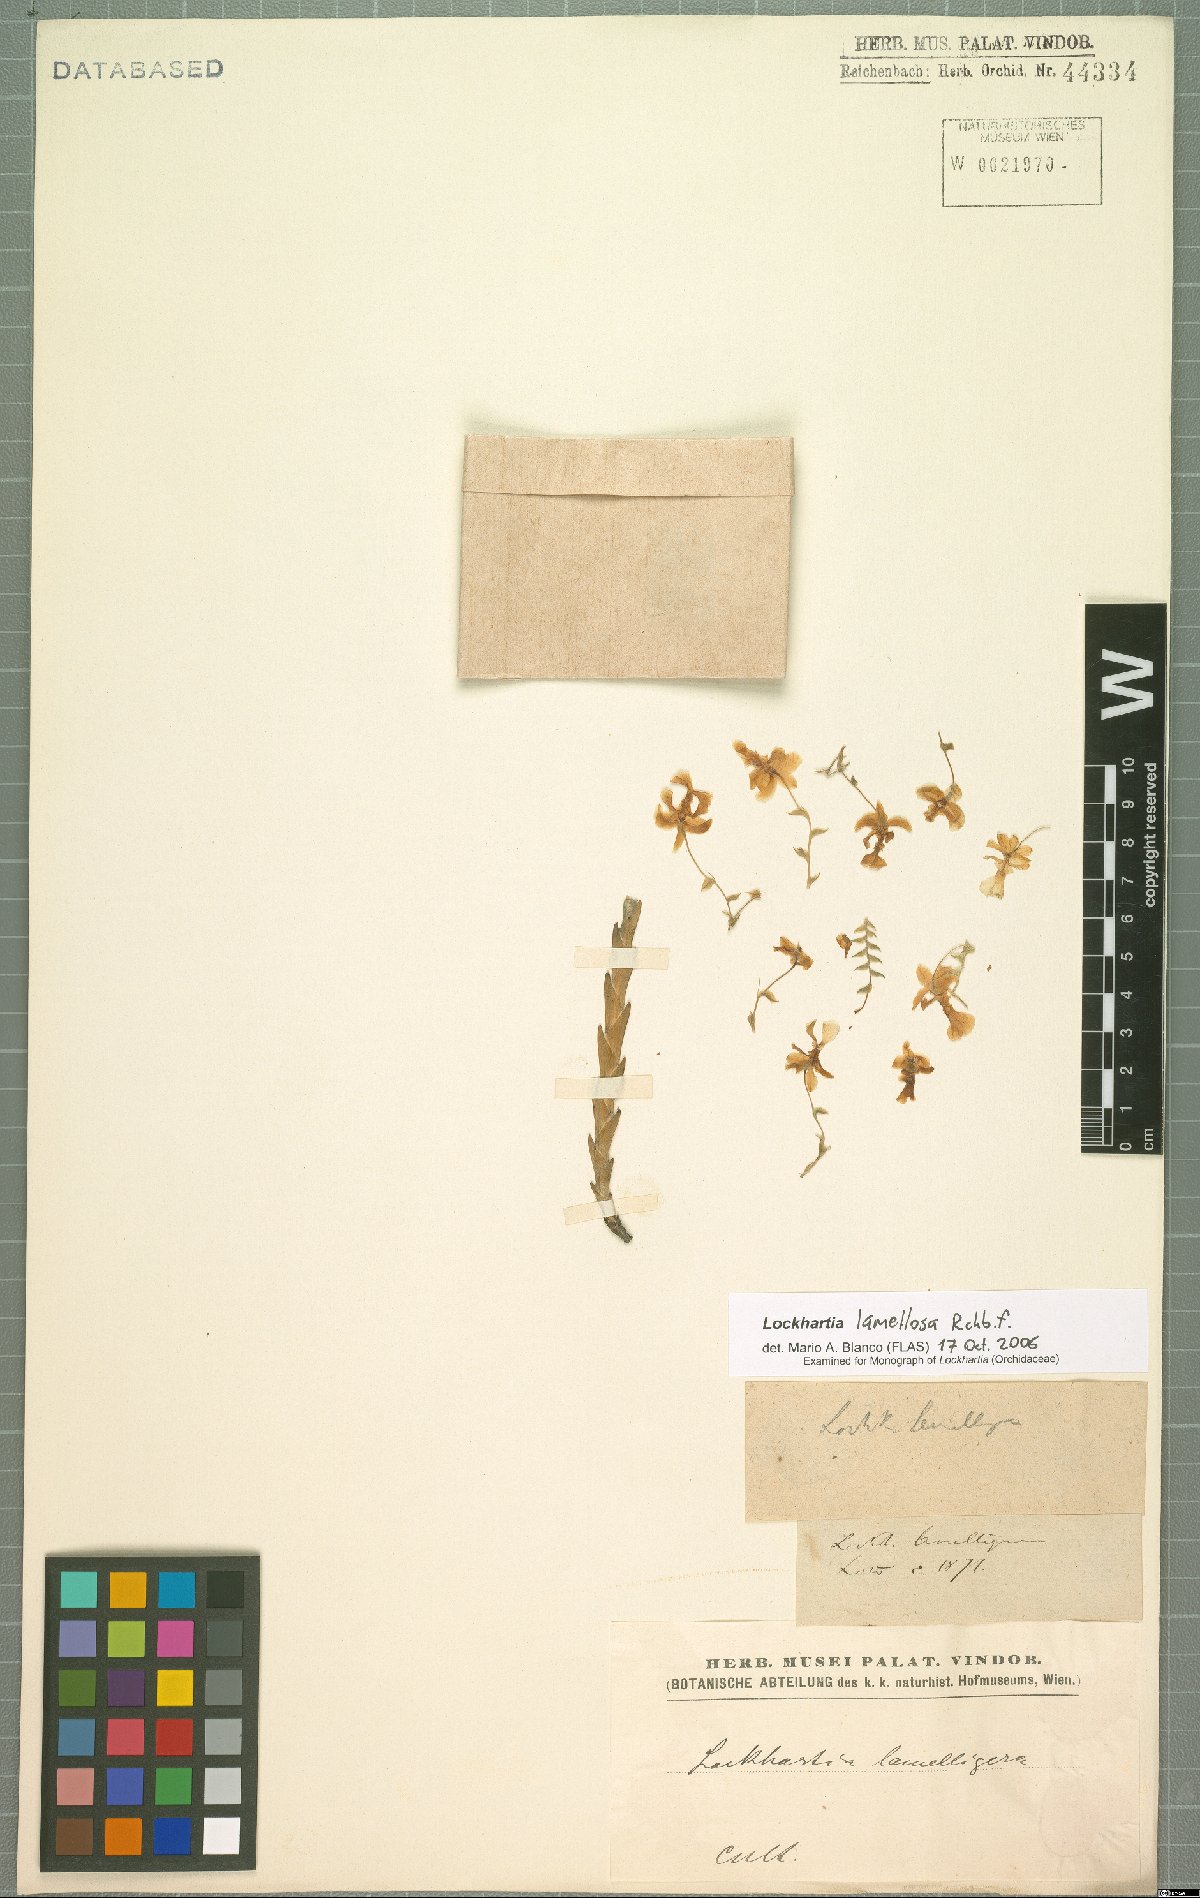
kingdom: Plantae
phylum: Tracheophyta
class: Liliopsida
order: Asparagales
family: Orchidaceae
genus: Lockhartia
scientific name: Lockhartia oerstedii
